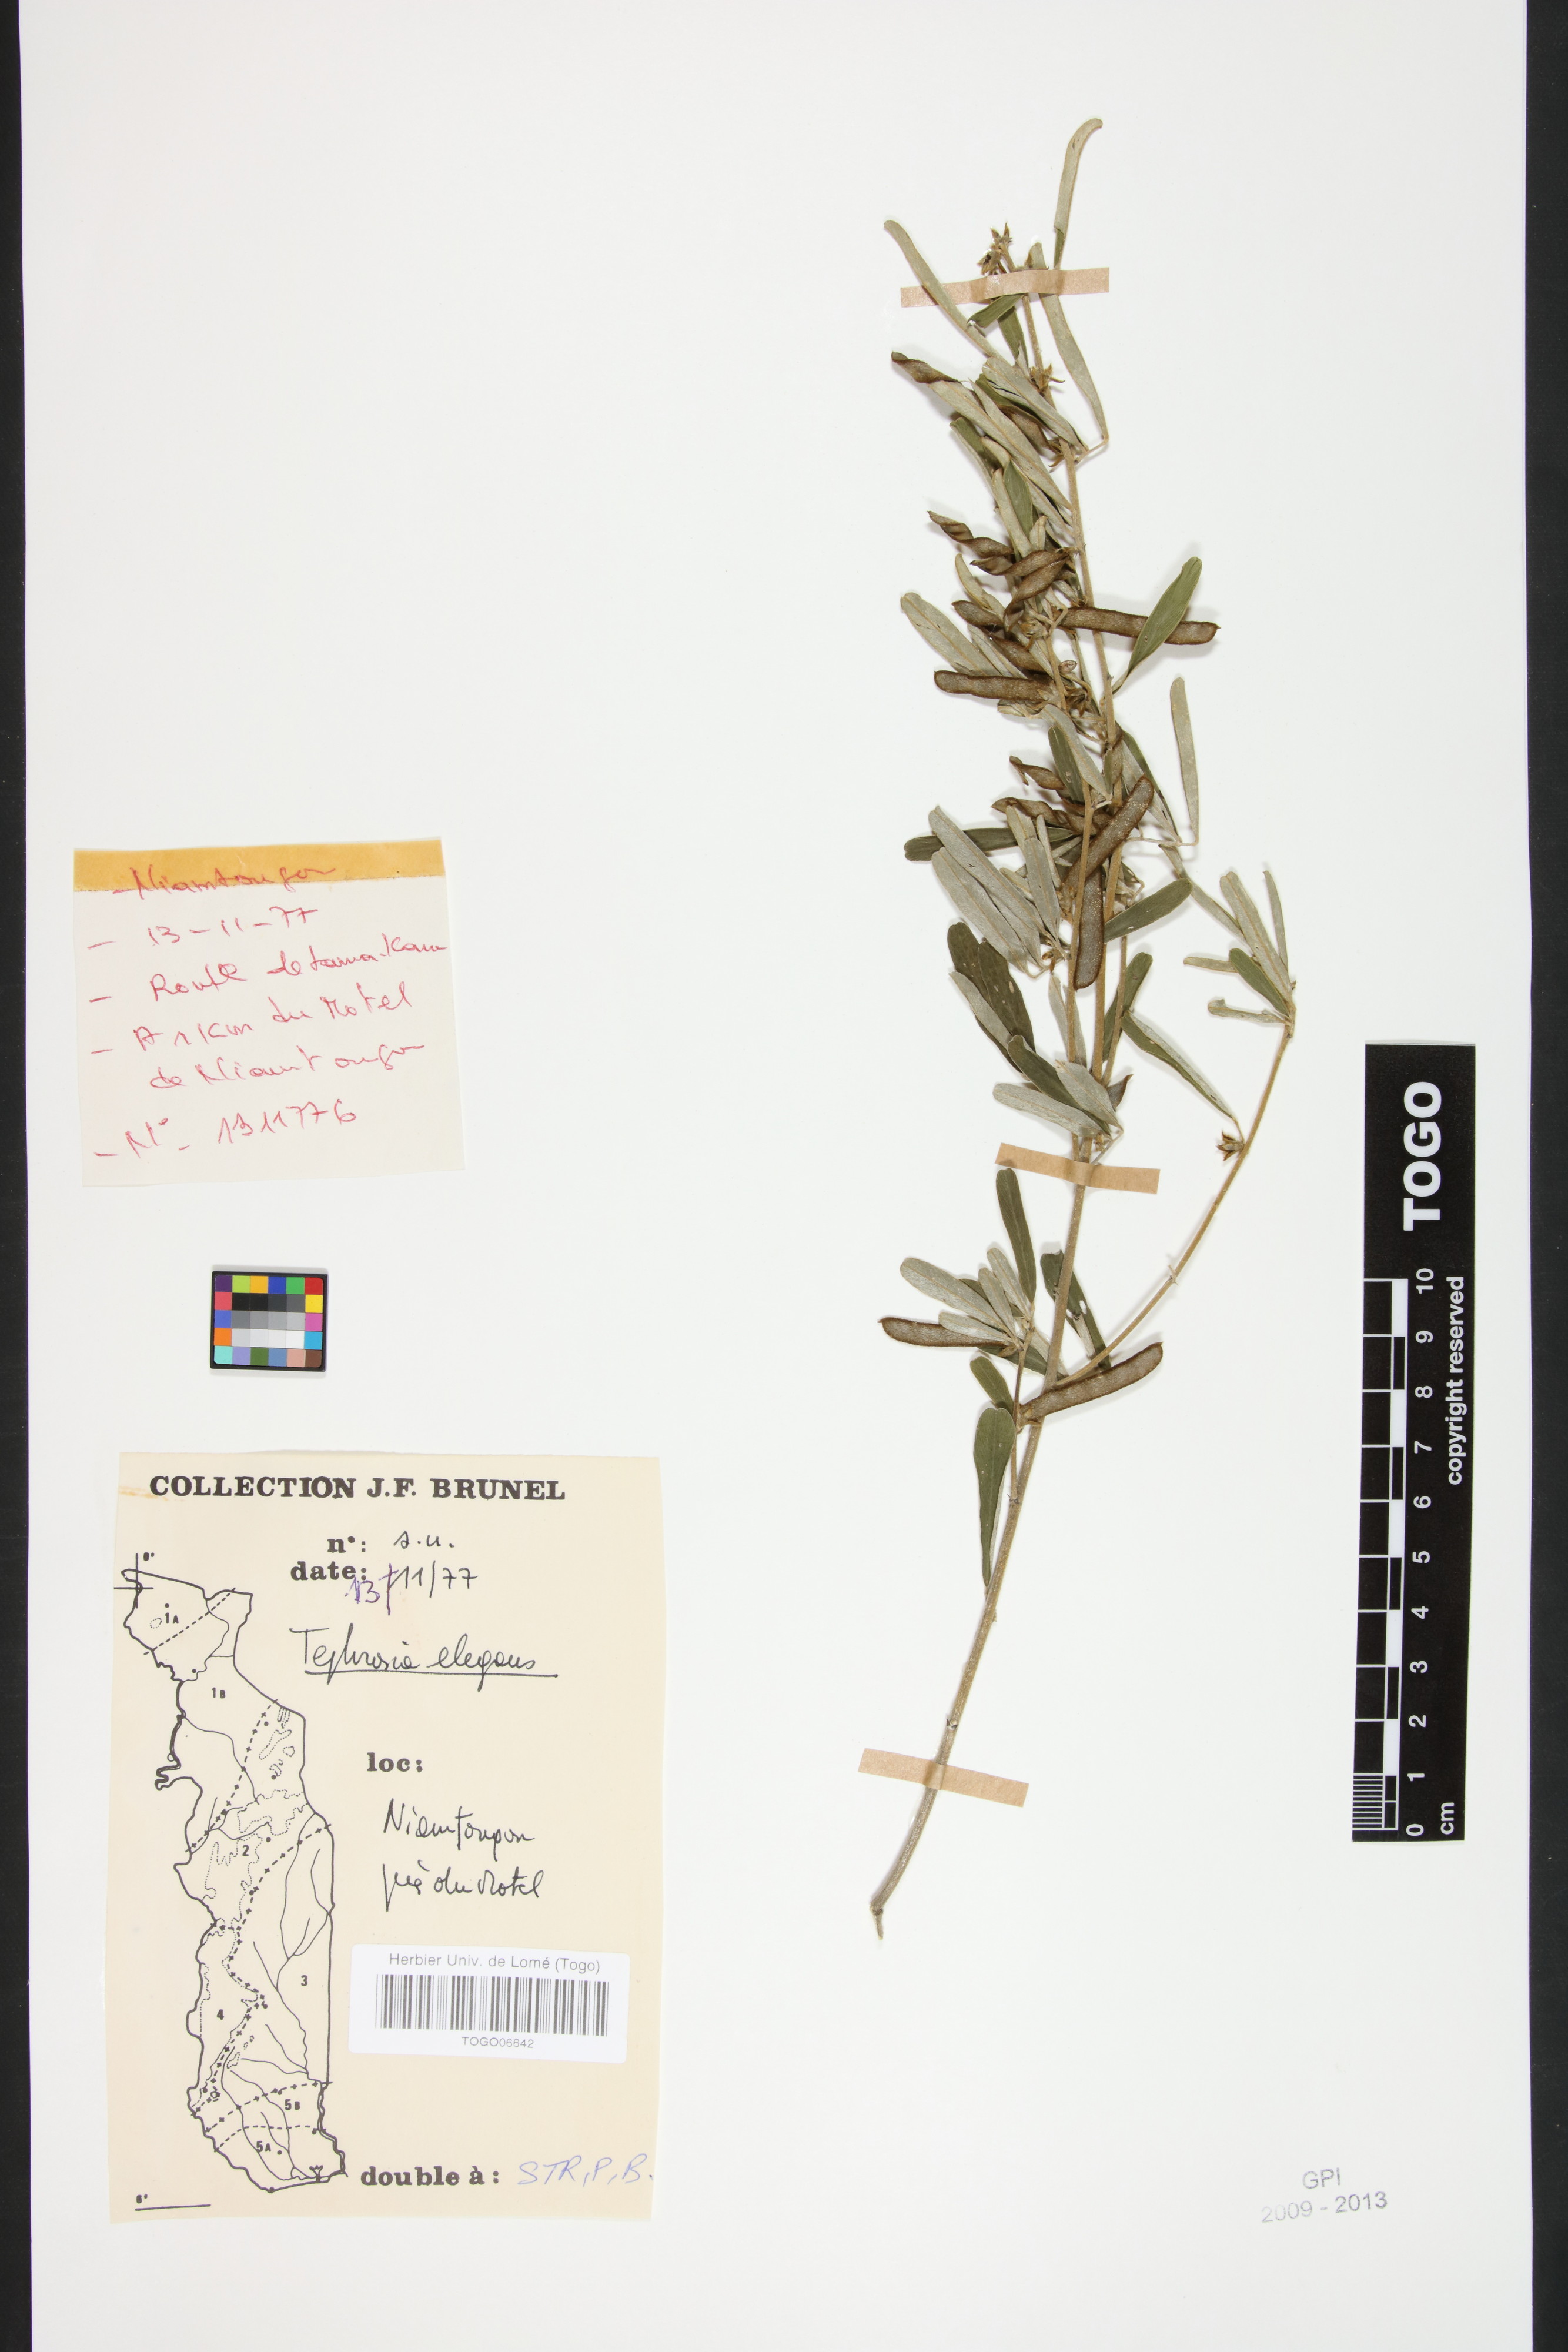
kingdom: Plantae
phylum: Tracheophyta
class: Magnoliopsida
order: Fabales
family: Fabaceae
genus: Tephrosia
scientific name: Tephrosia elegans
